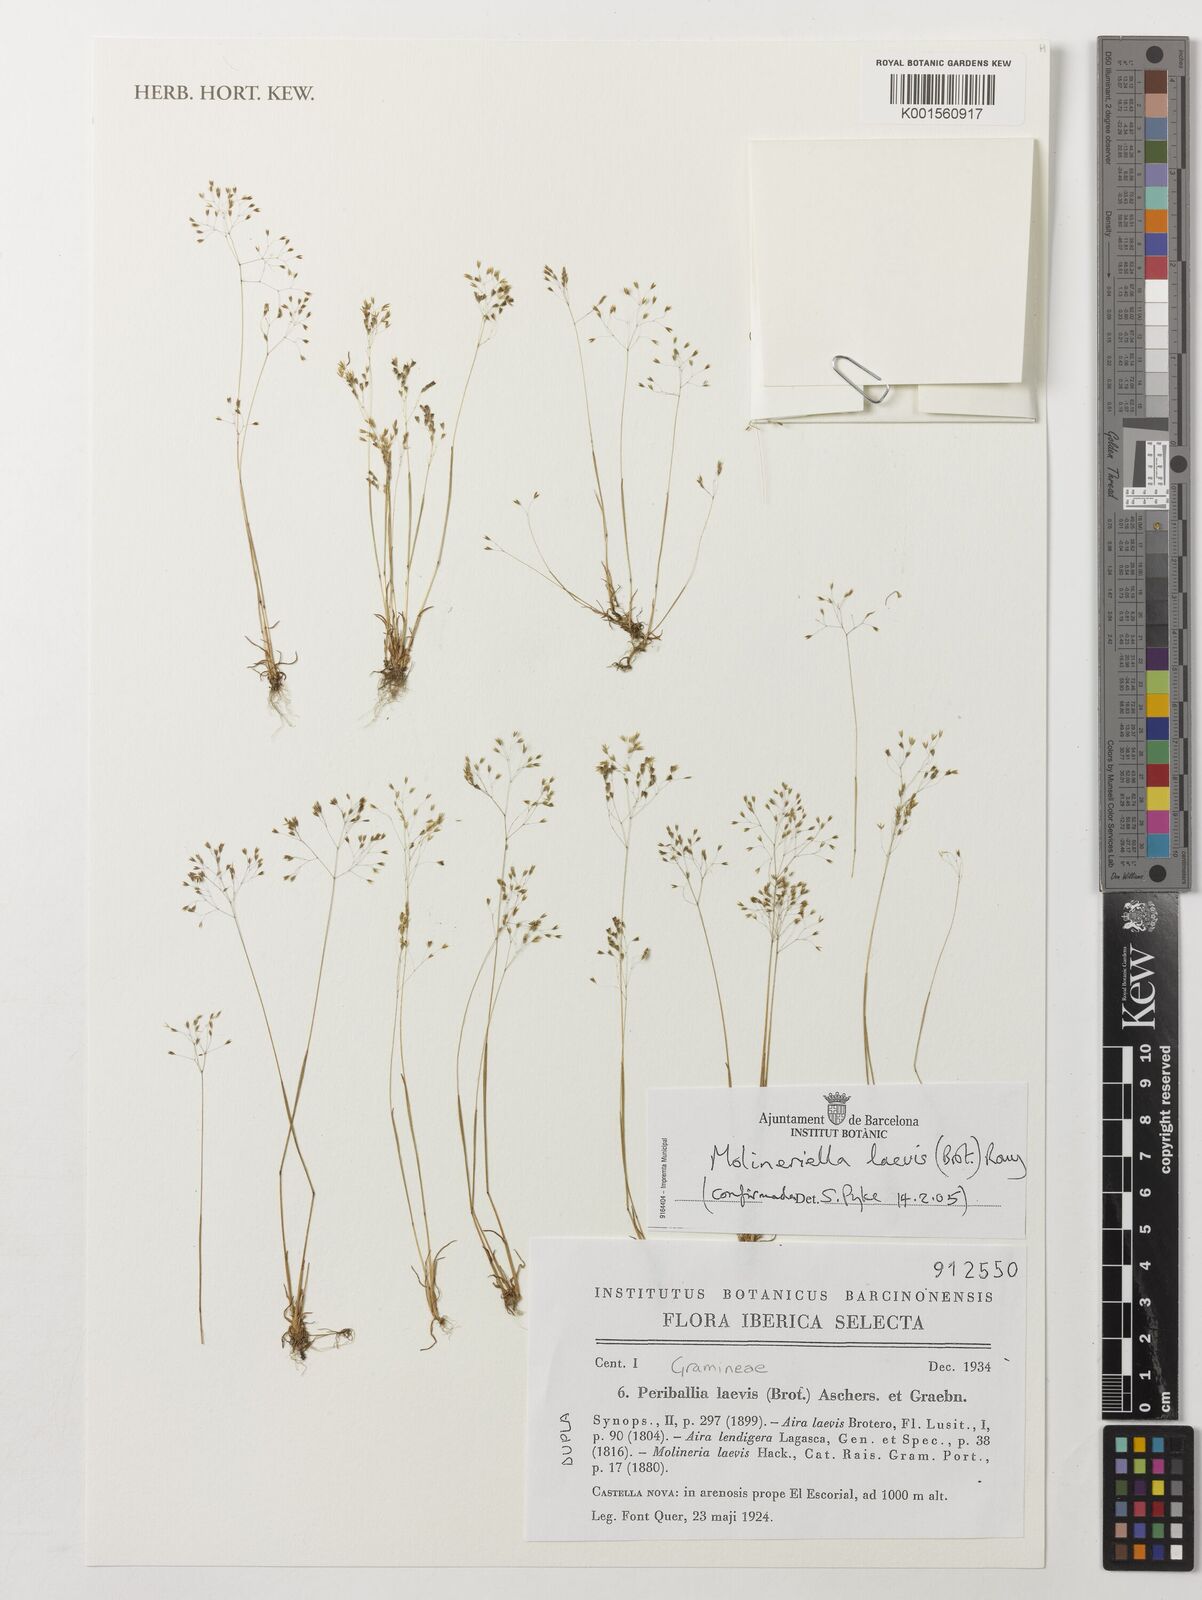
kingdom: Plantae
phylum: Tracheophyta
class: Liliopsida
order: Poales
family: Poaceae
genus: Molineriella
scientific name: Molineriella laevis
